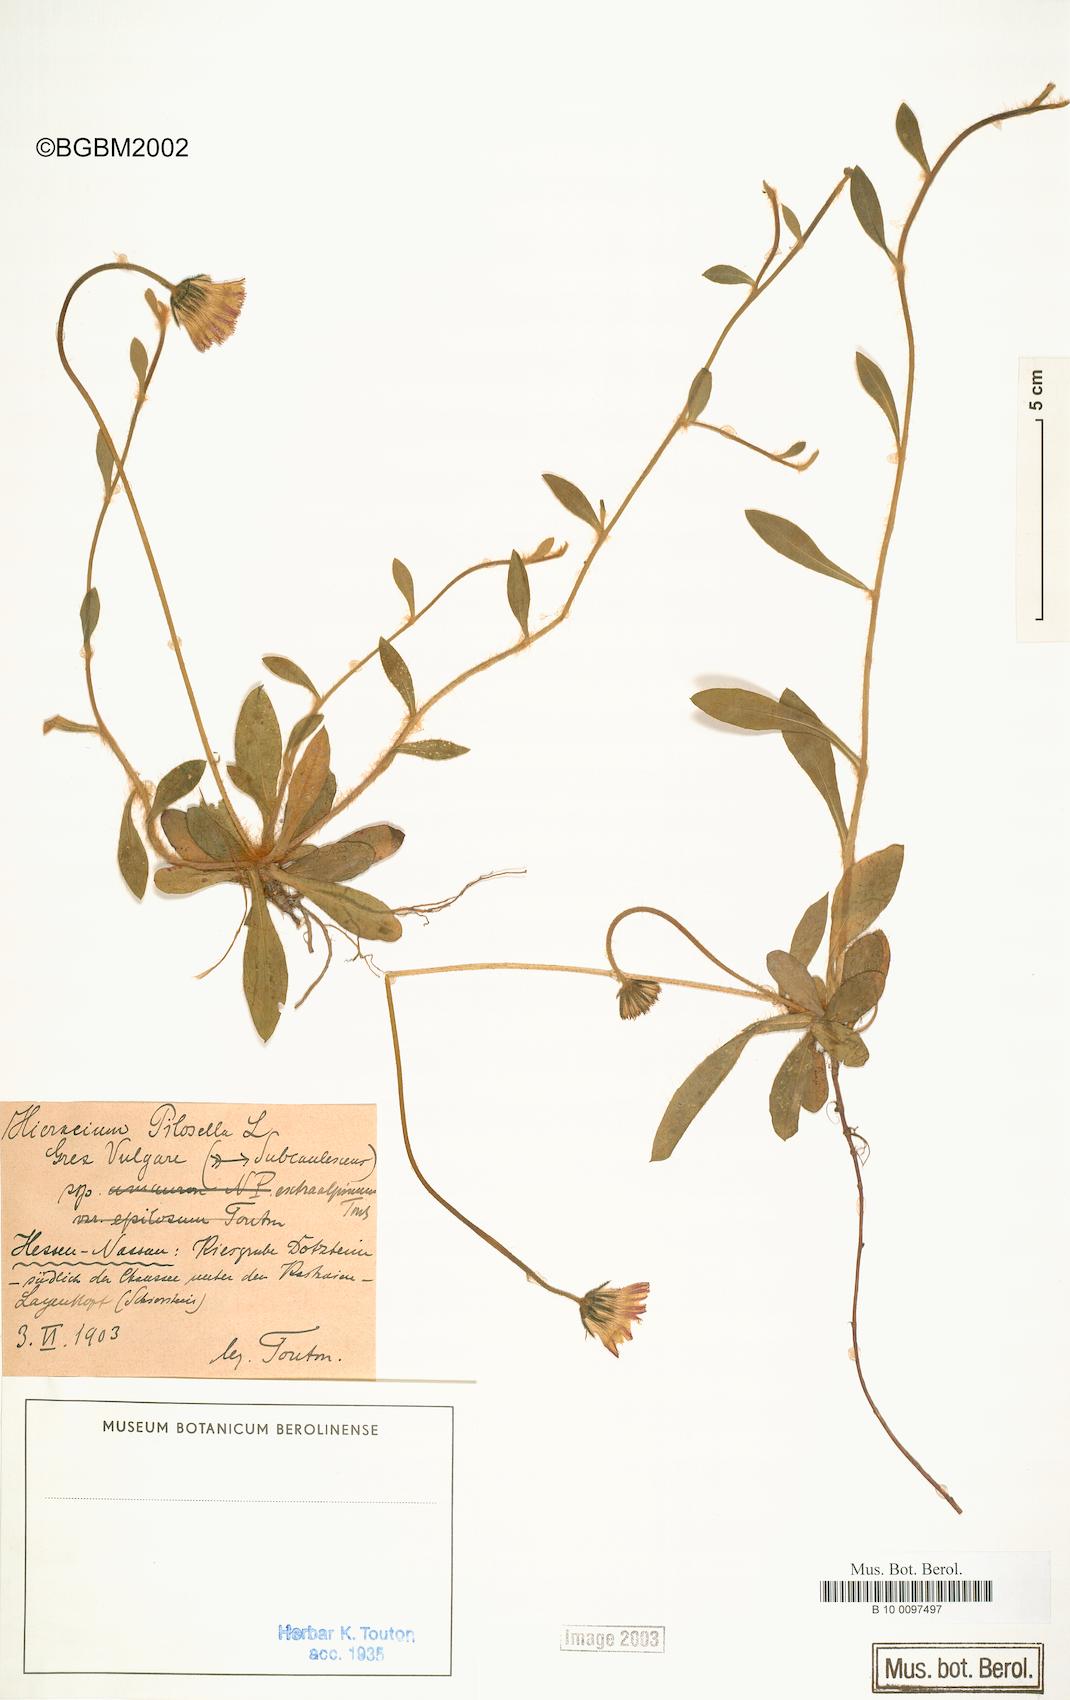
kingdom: Plantae
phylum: Tracheophyta
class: Magnoliopsida
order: Asterales
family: Asteraceae
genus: Pilosella
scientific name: Pilosella officinarum
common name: Mouse-ear hawkweed
